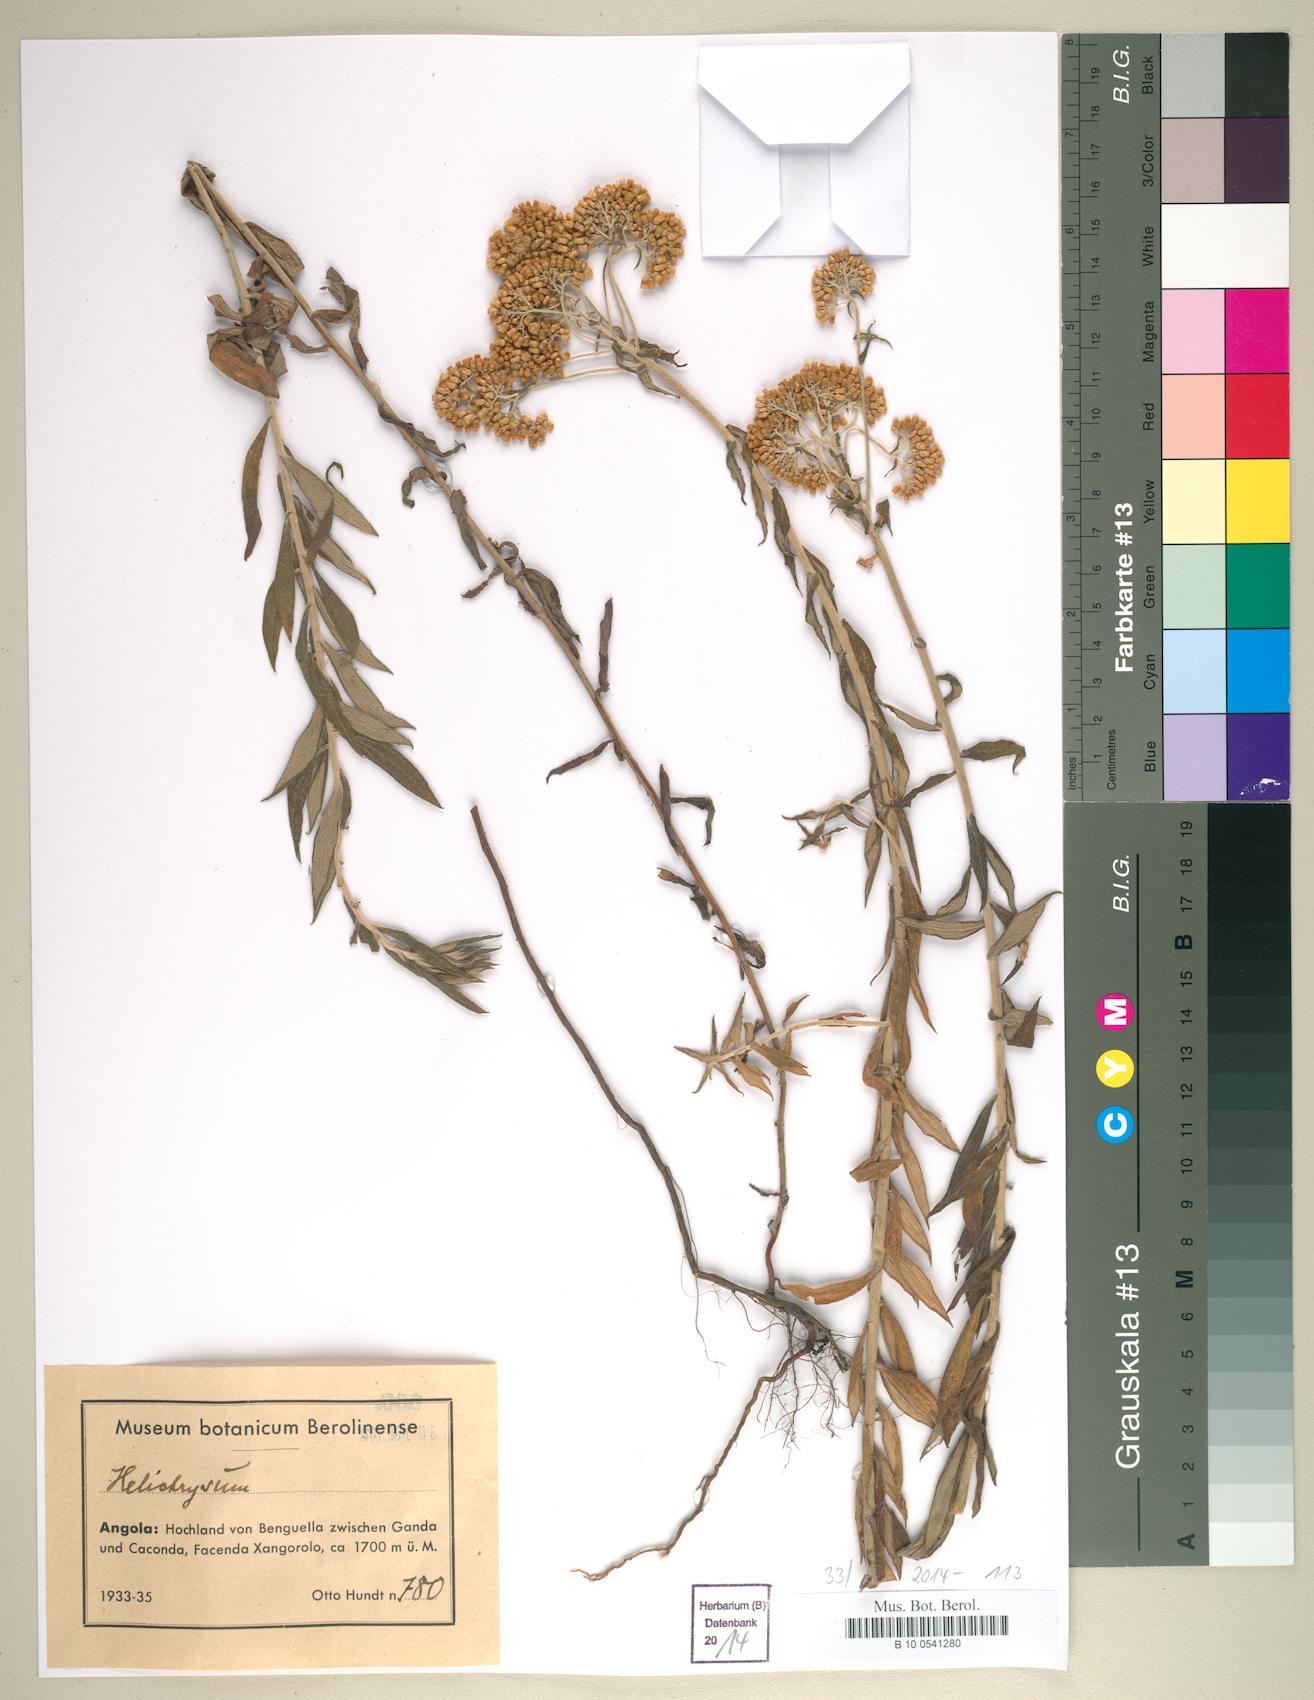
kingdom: Plantae
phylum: Tracheophyta
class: Magnoliopsida
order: Asterales
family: Asteraceae
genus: Helichrysum
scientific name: Helichrysum
